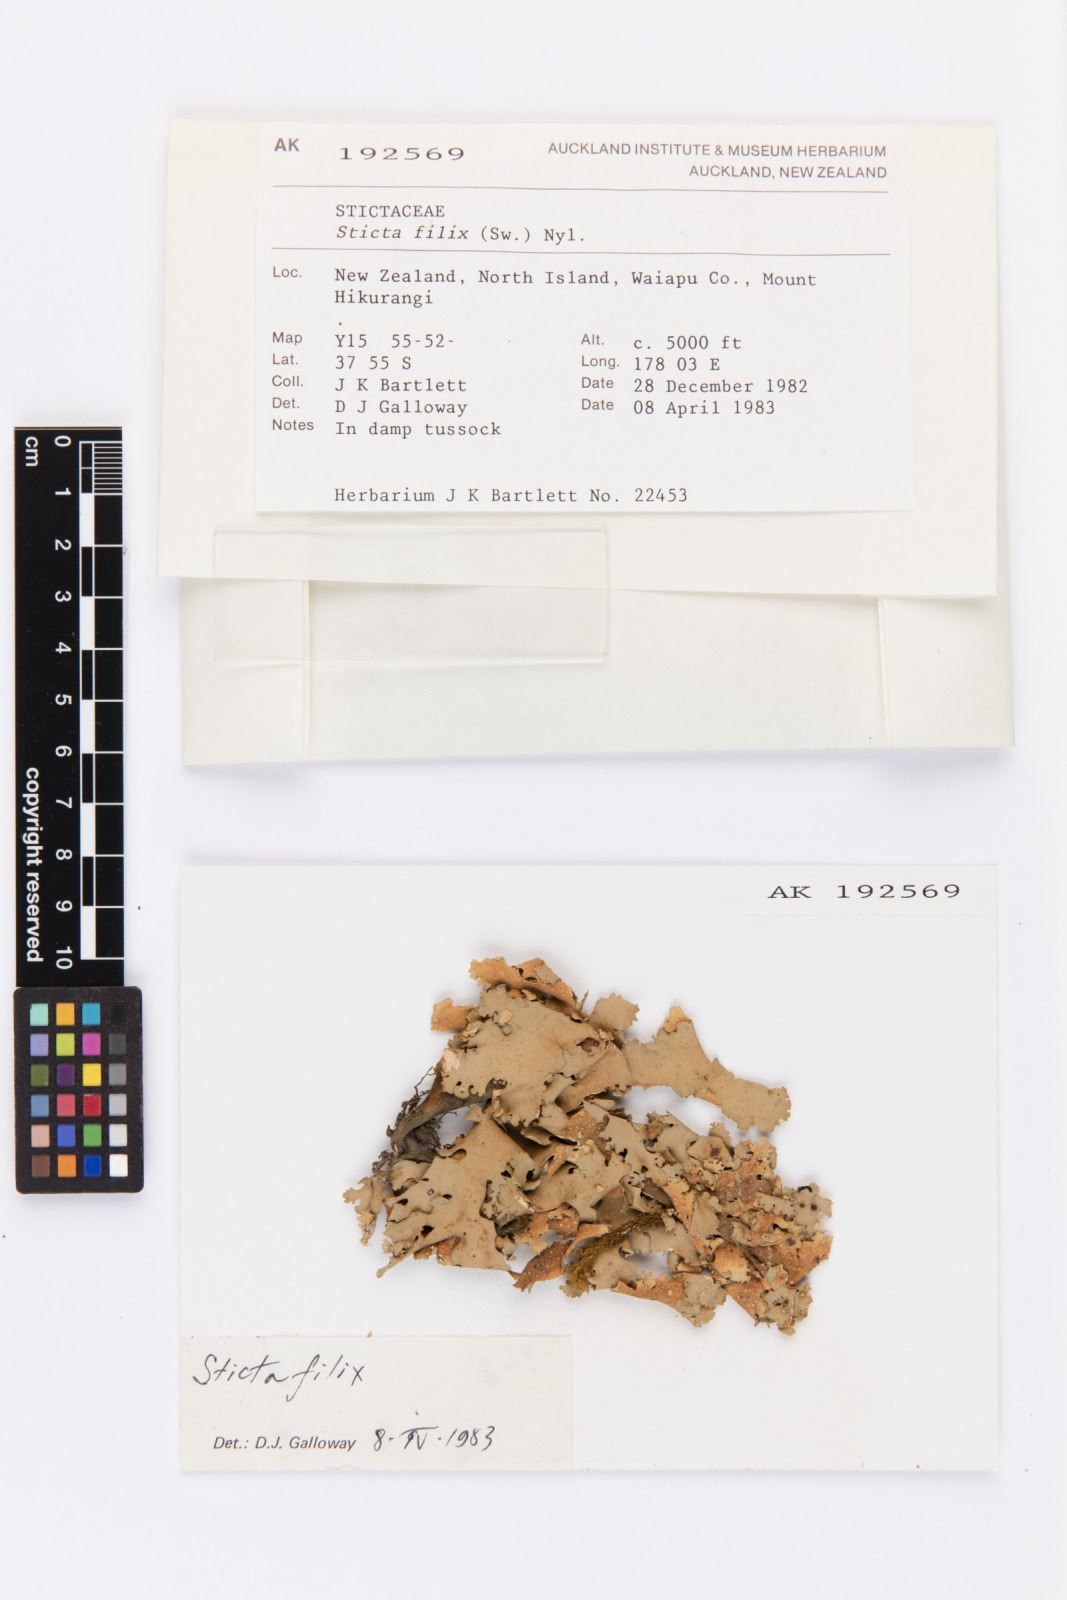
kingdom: Fungi
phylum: Ascomycota
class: Lecanoromycetes
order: Peltigerales
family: Lobariaceae
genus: Sticta
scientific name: Sticta filix
